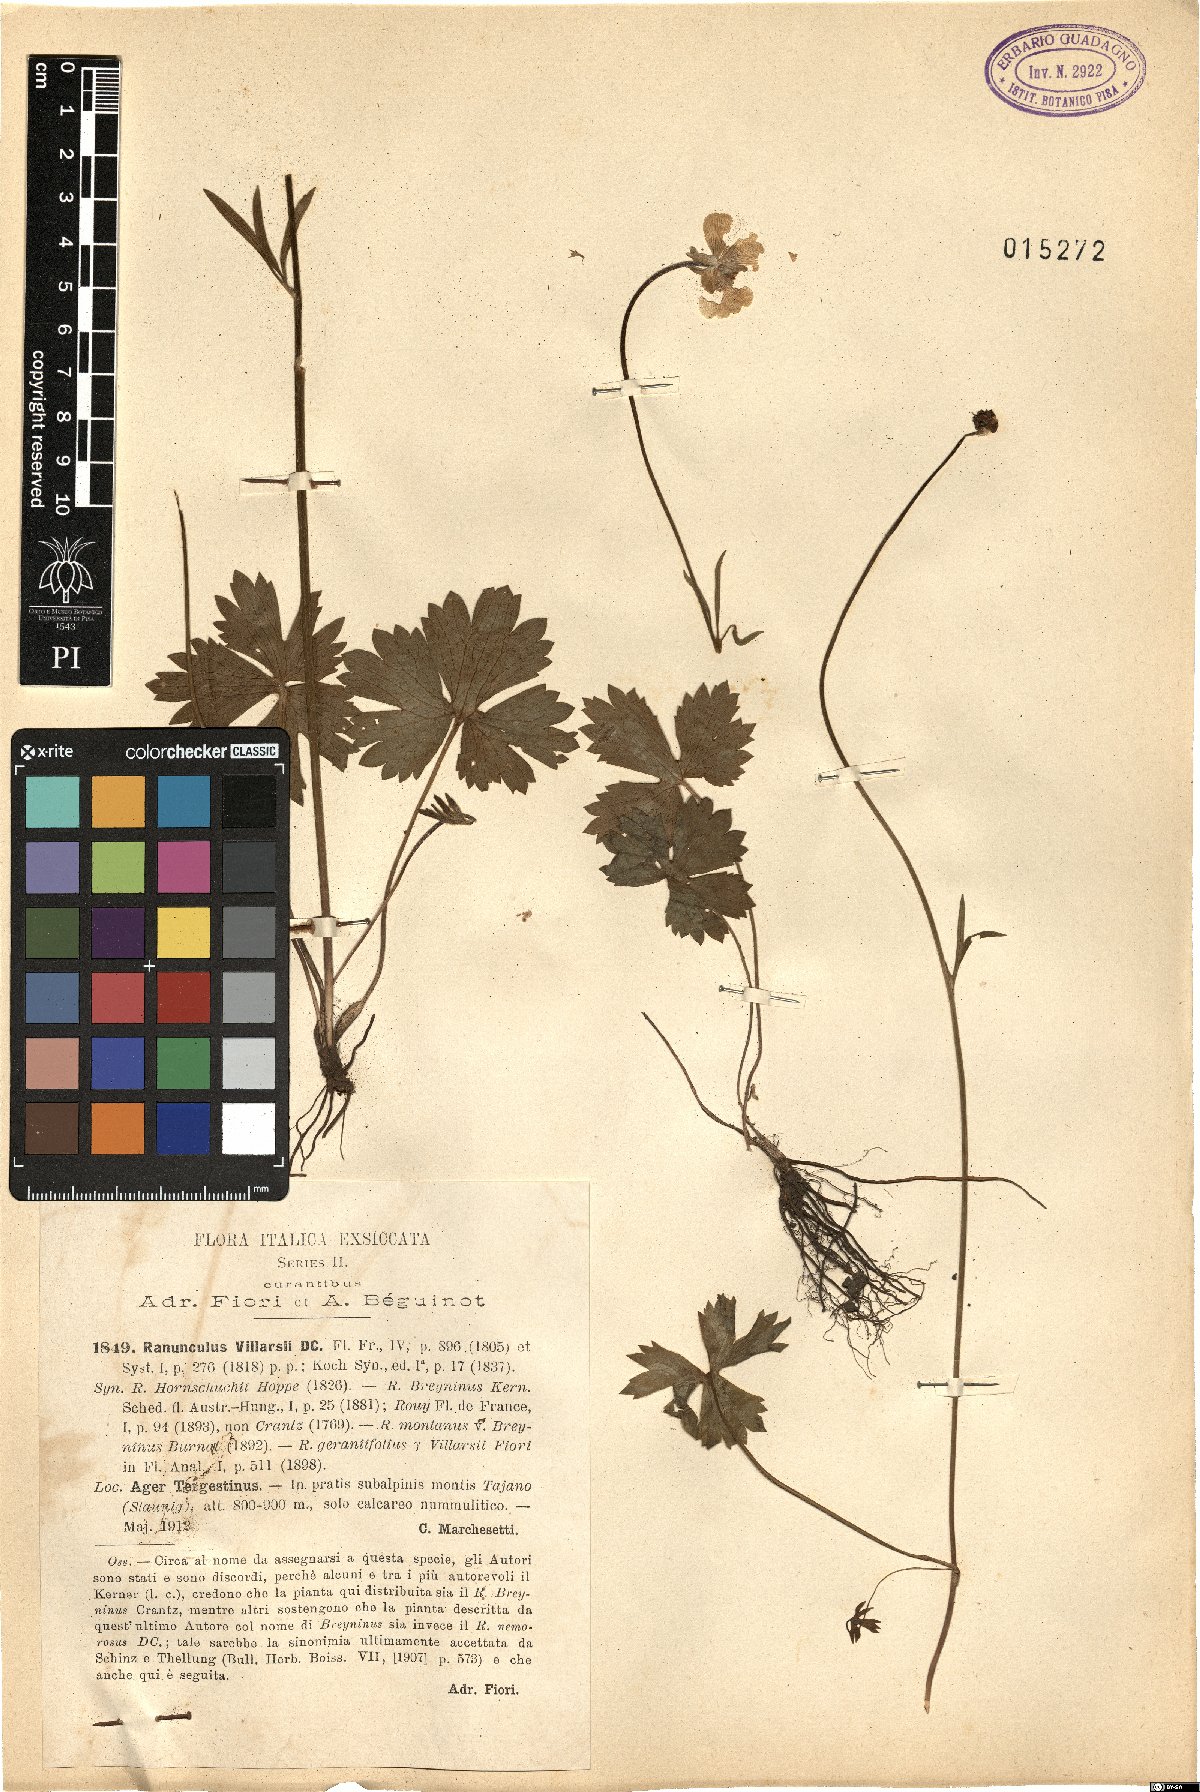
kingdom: Plantae
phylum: Tracheophyta
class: Magnoliopsida
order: Ranunculales
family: Ranunculaceae
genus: Ranunculus
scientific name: Ranunculus villarsii
